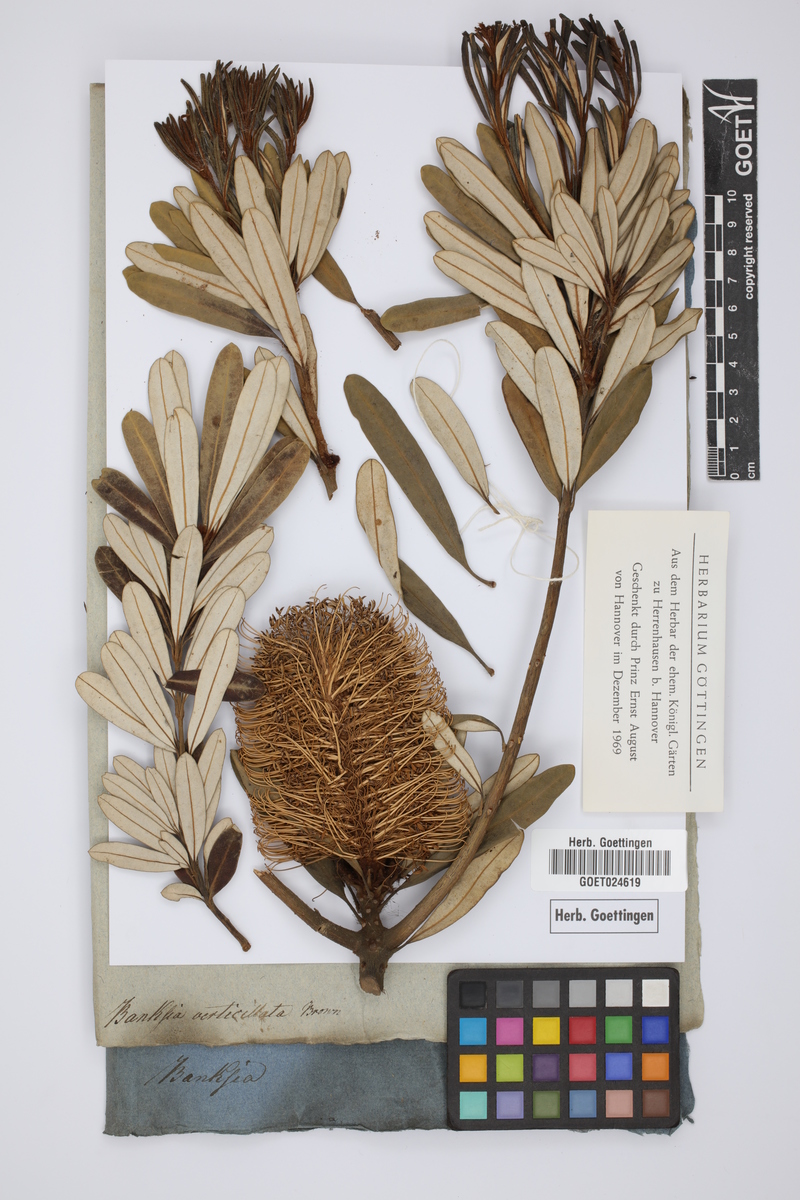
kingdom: Plantae
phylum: Tracheophyta
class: Magnoliopsida
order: Proteales
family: Proteaceae
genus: Banksia
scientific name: Banksia verticiliata
